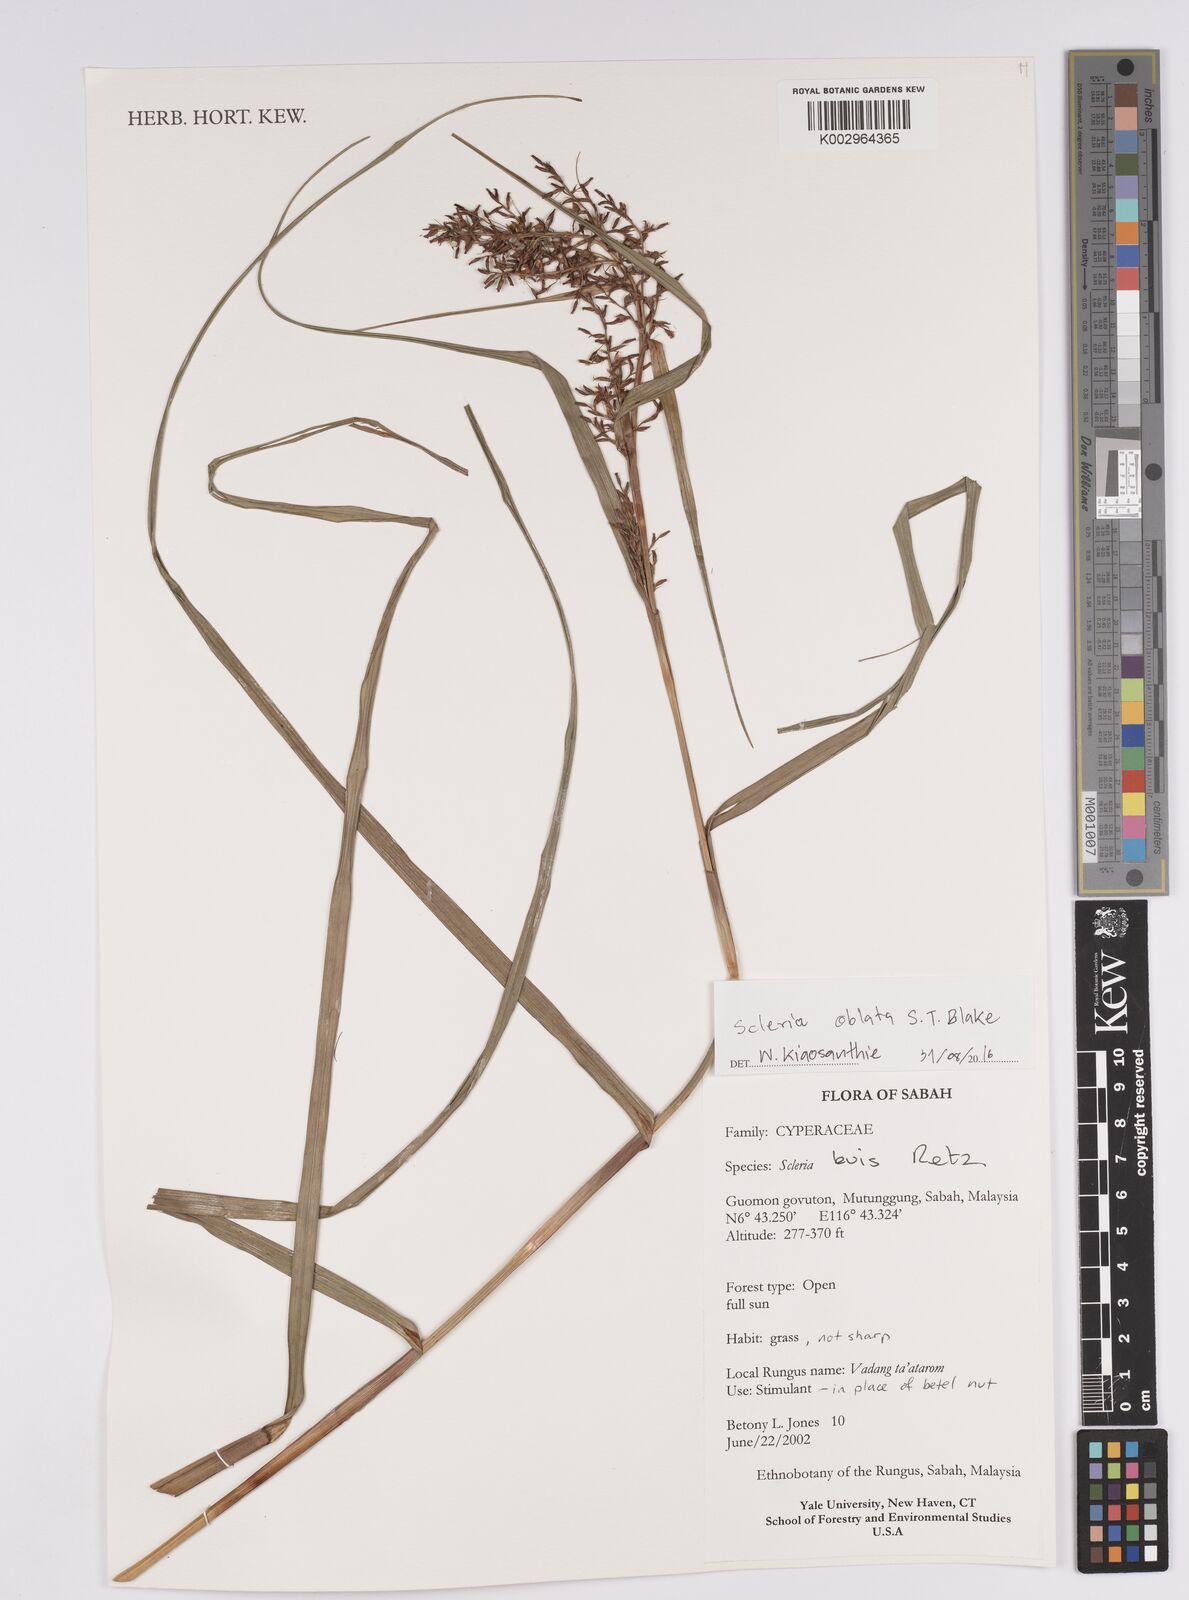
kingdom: Plantae
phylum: Tracheophyta
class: Liliopsida
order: Poales
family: Cyperaceae
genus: Scleria
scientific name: Scleria oblata
